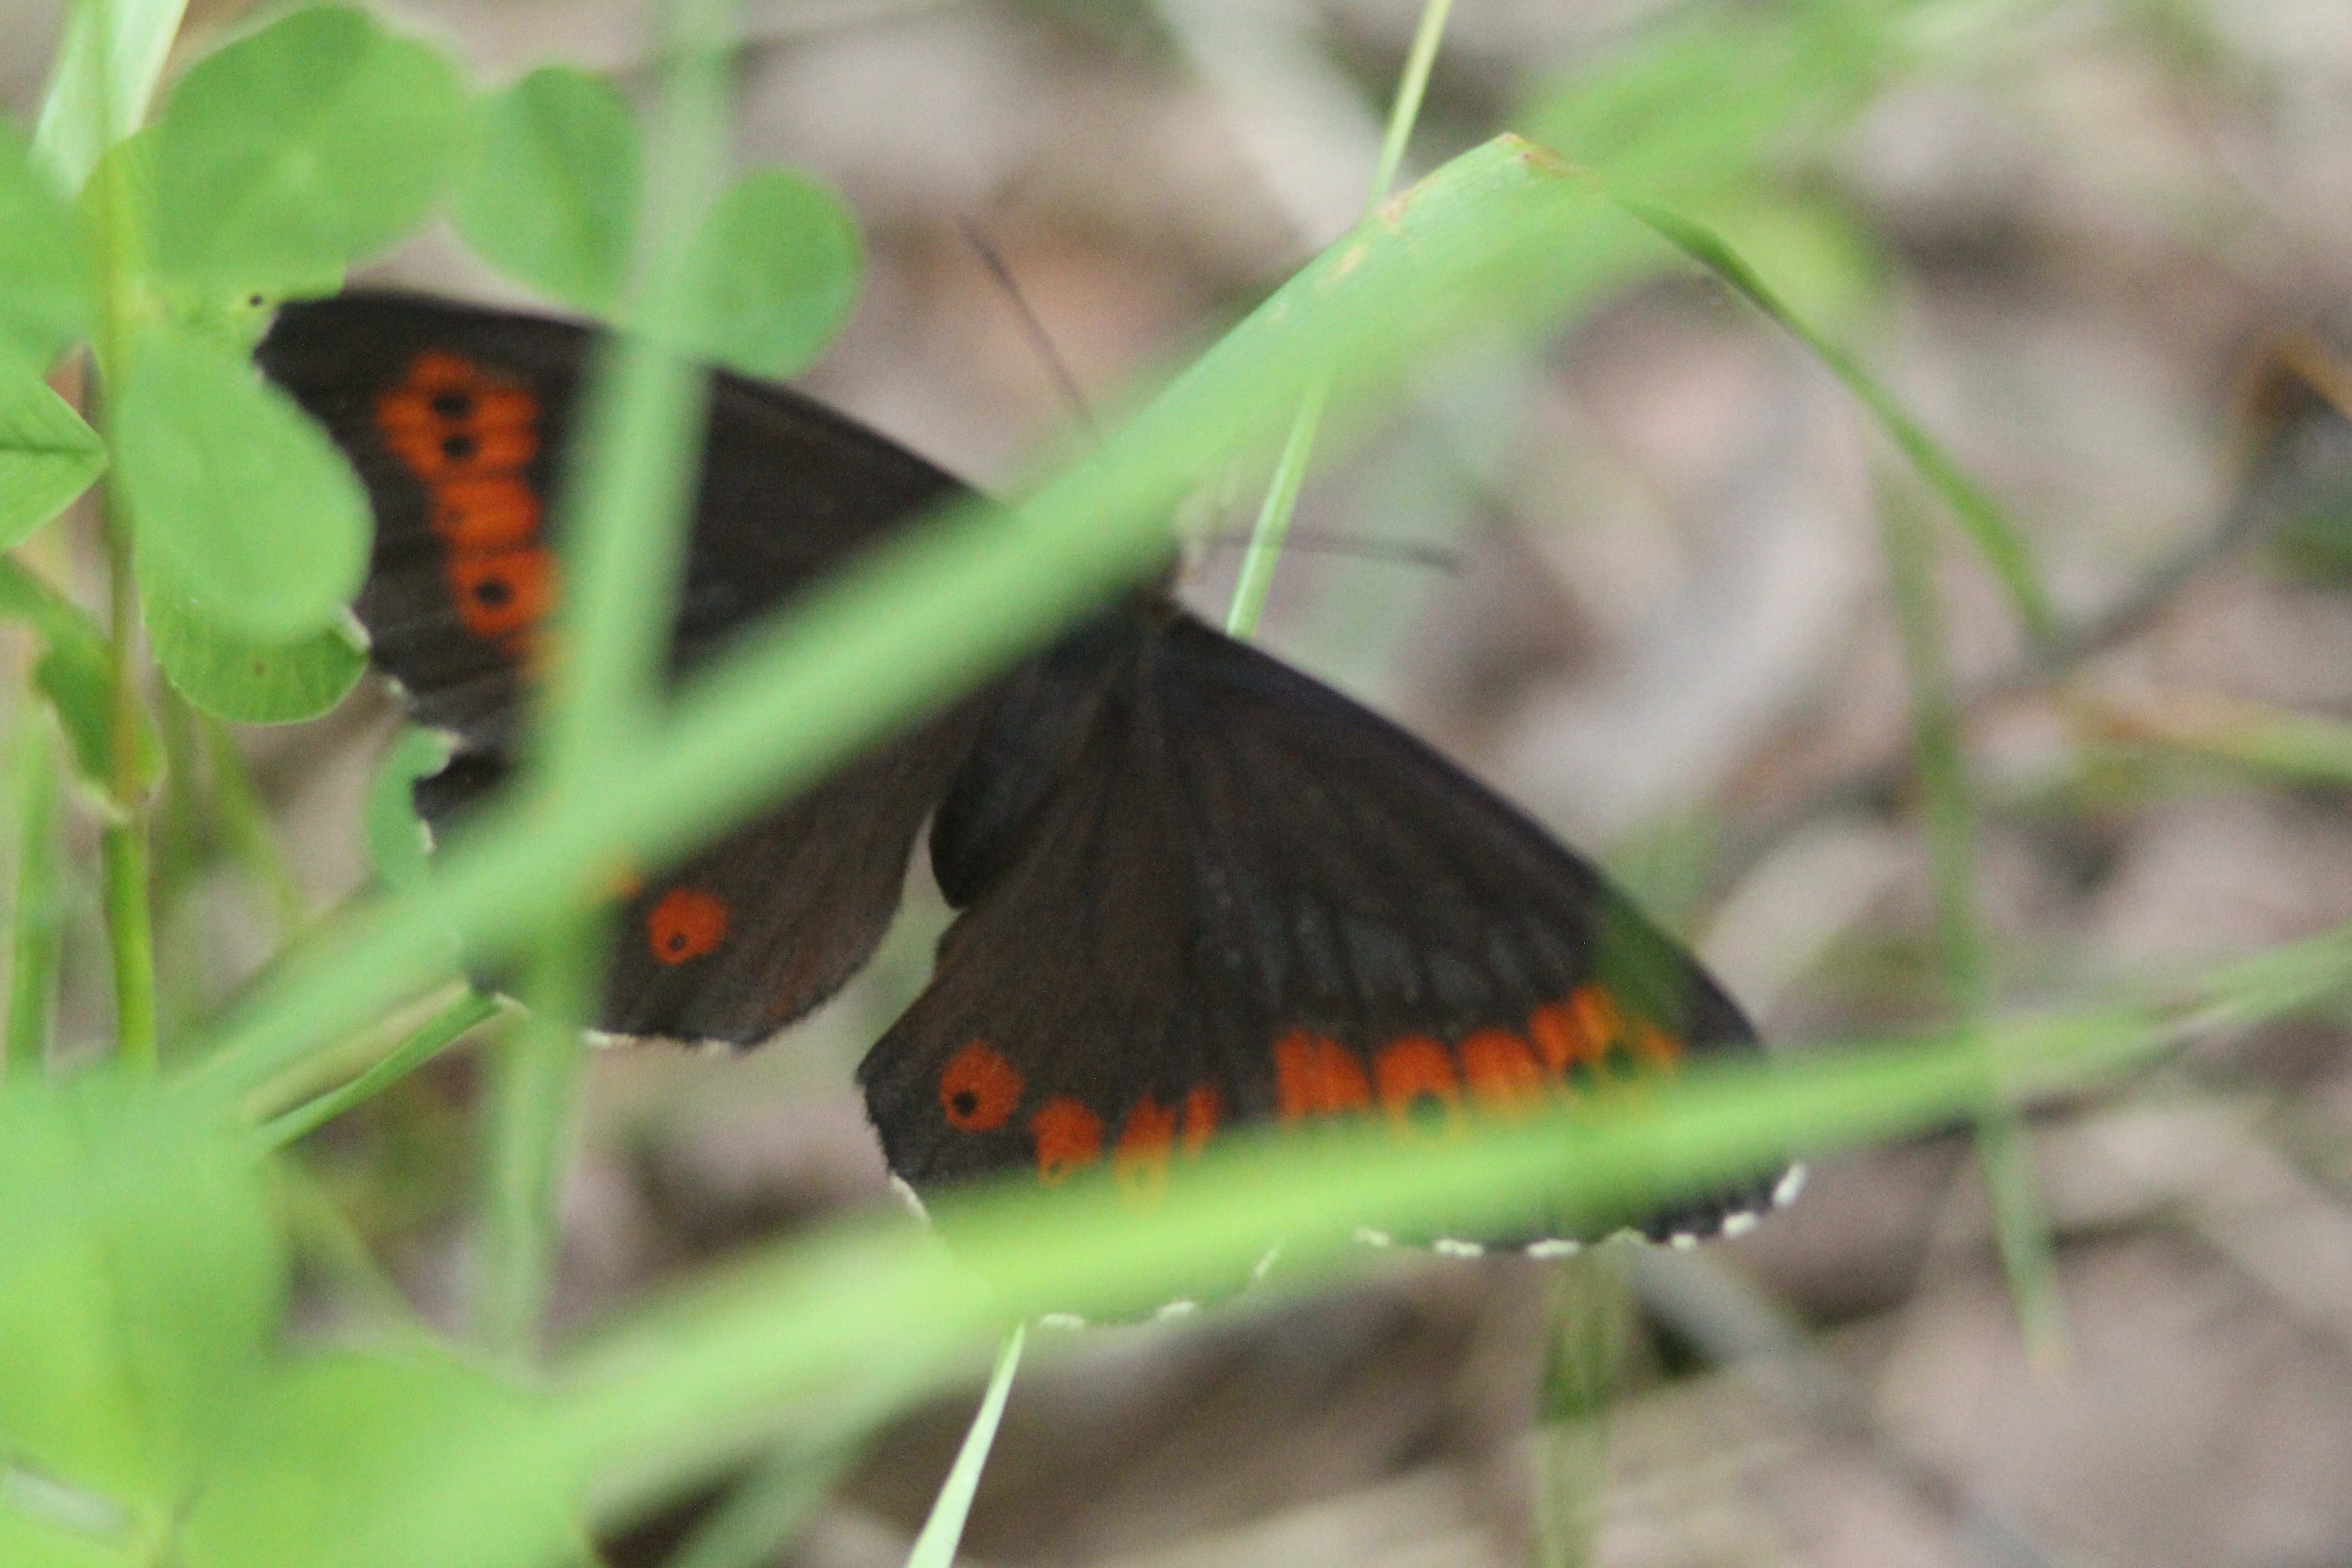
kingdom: Animalia
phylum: Arthropoda
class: Insecta
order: Lepidoptera
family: Nymphalidae
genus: Erebia
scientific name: Erebia ligea
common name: Arran brown
